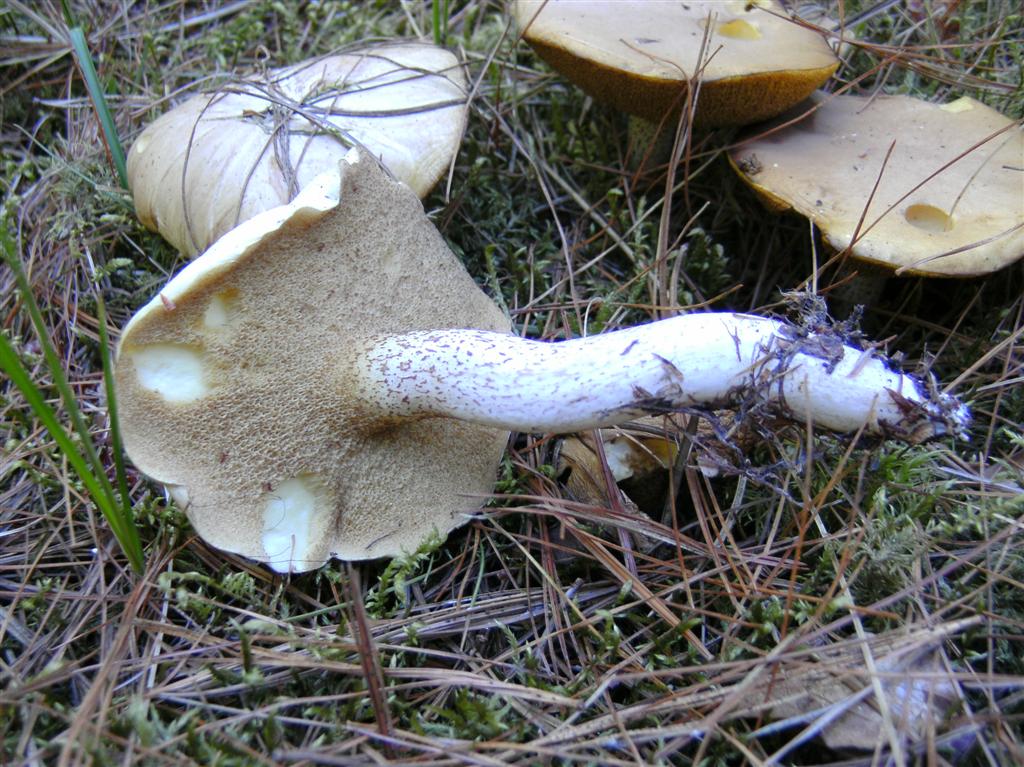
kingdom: Fungi
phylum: Basidiomycota
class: Agaricomycetes
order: Boletales
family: Suillaceae
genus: Suillus
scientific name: Suillus placidus
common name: elfenbens-slimrørhat
